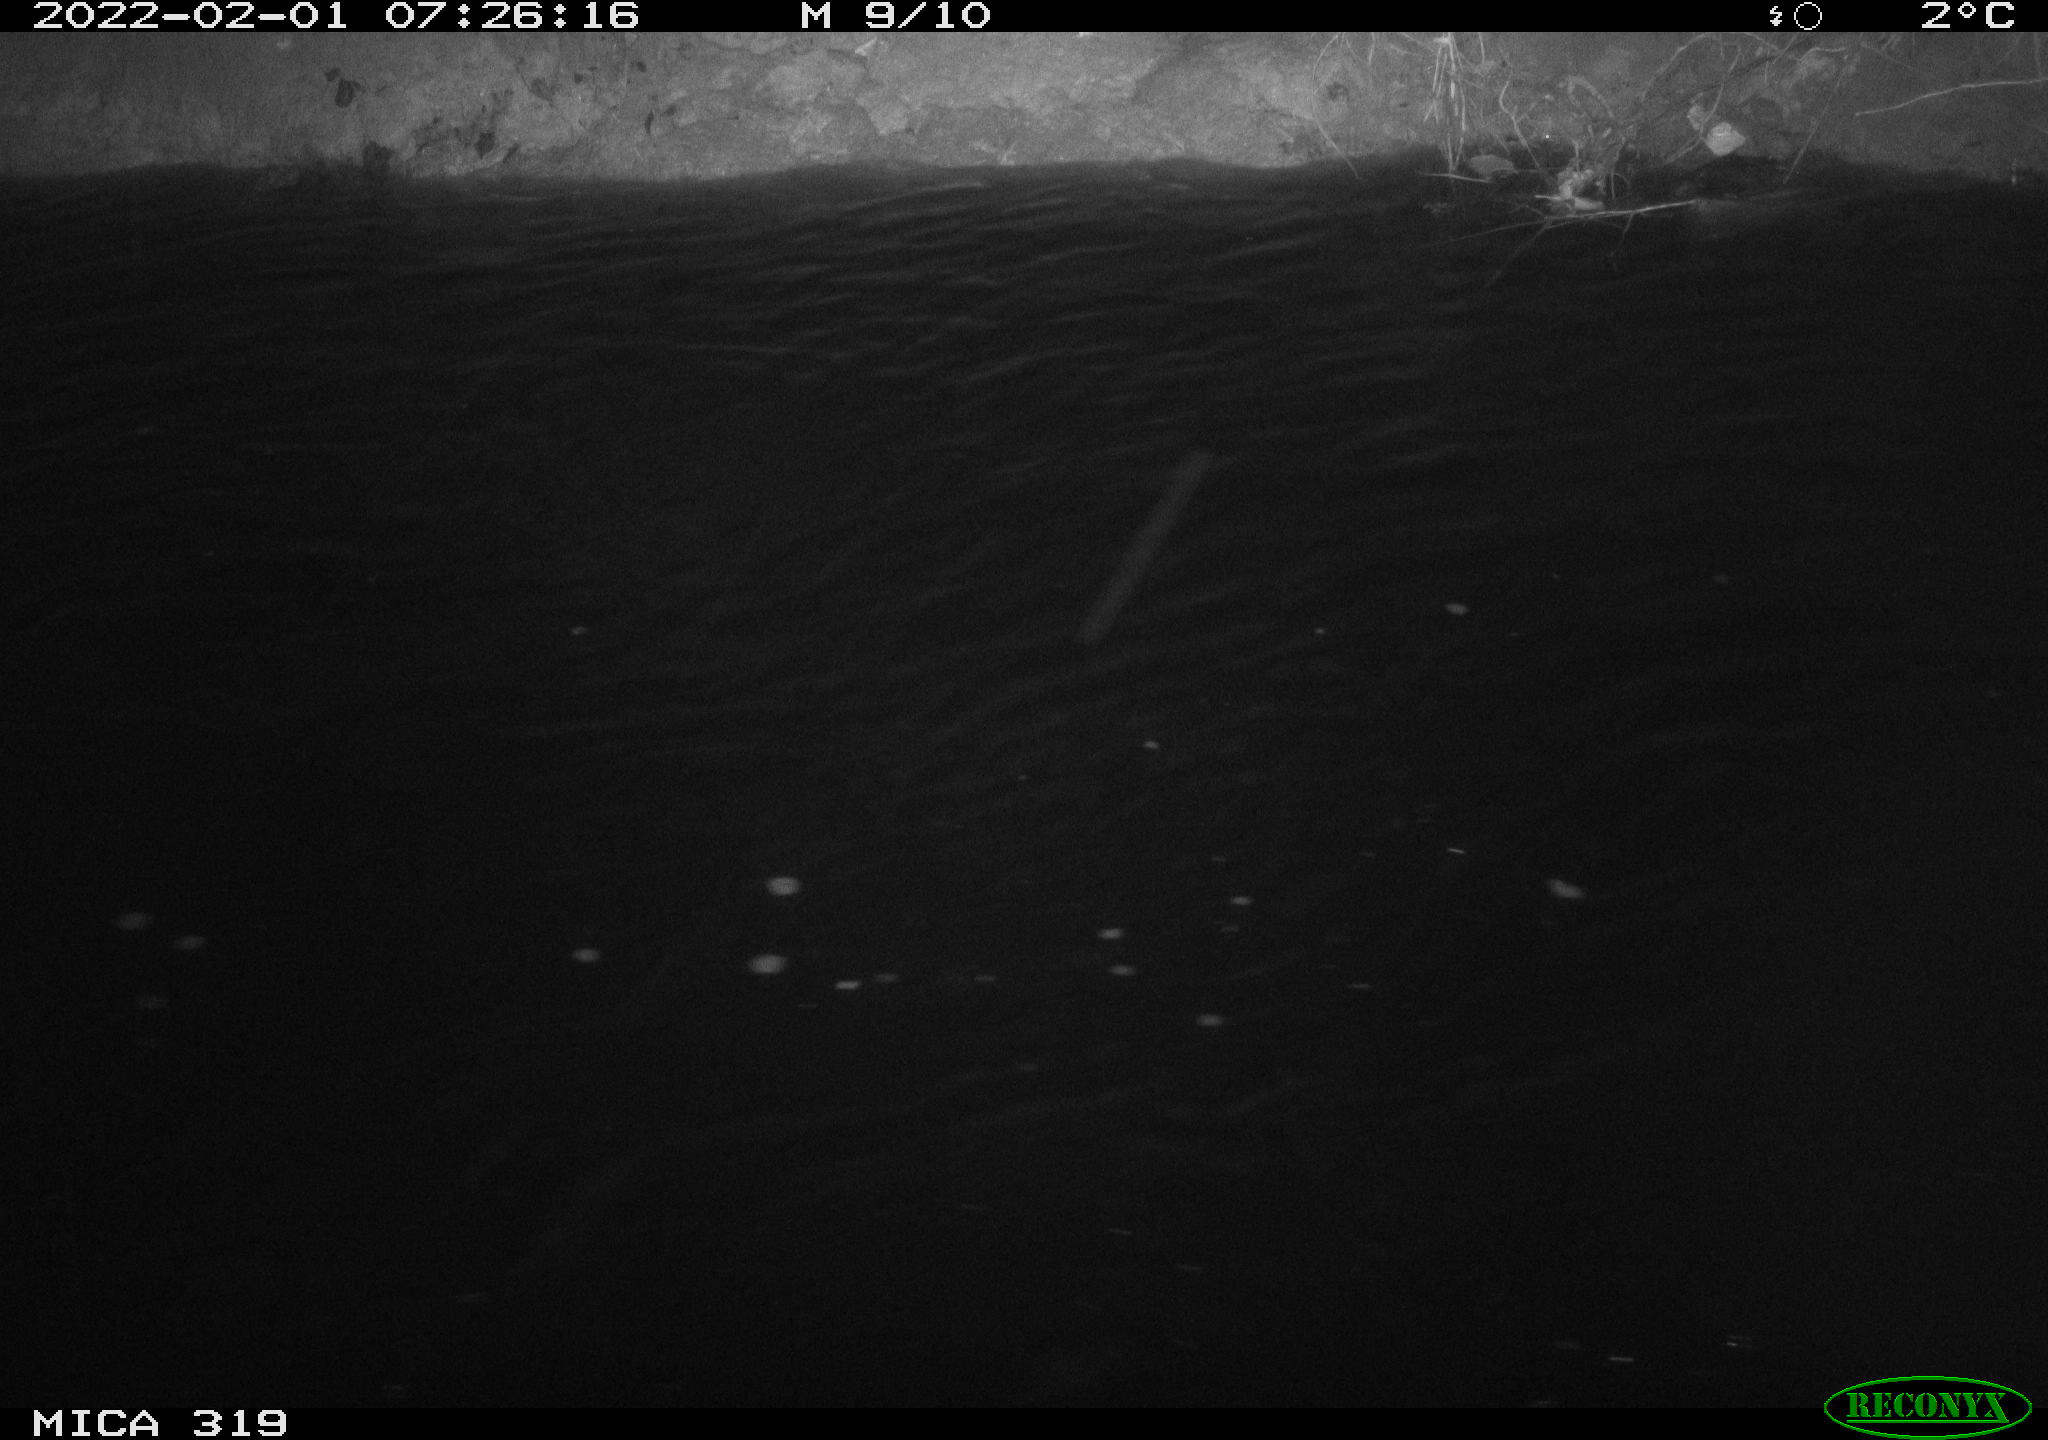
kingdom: Animalia
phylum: Chordata
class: Aves
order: Anseriformes
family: Anatidae
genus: Anas
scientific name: Anas platyrhynchos
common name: Mallard
